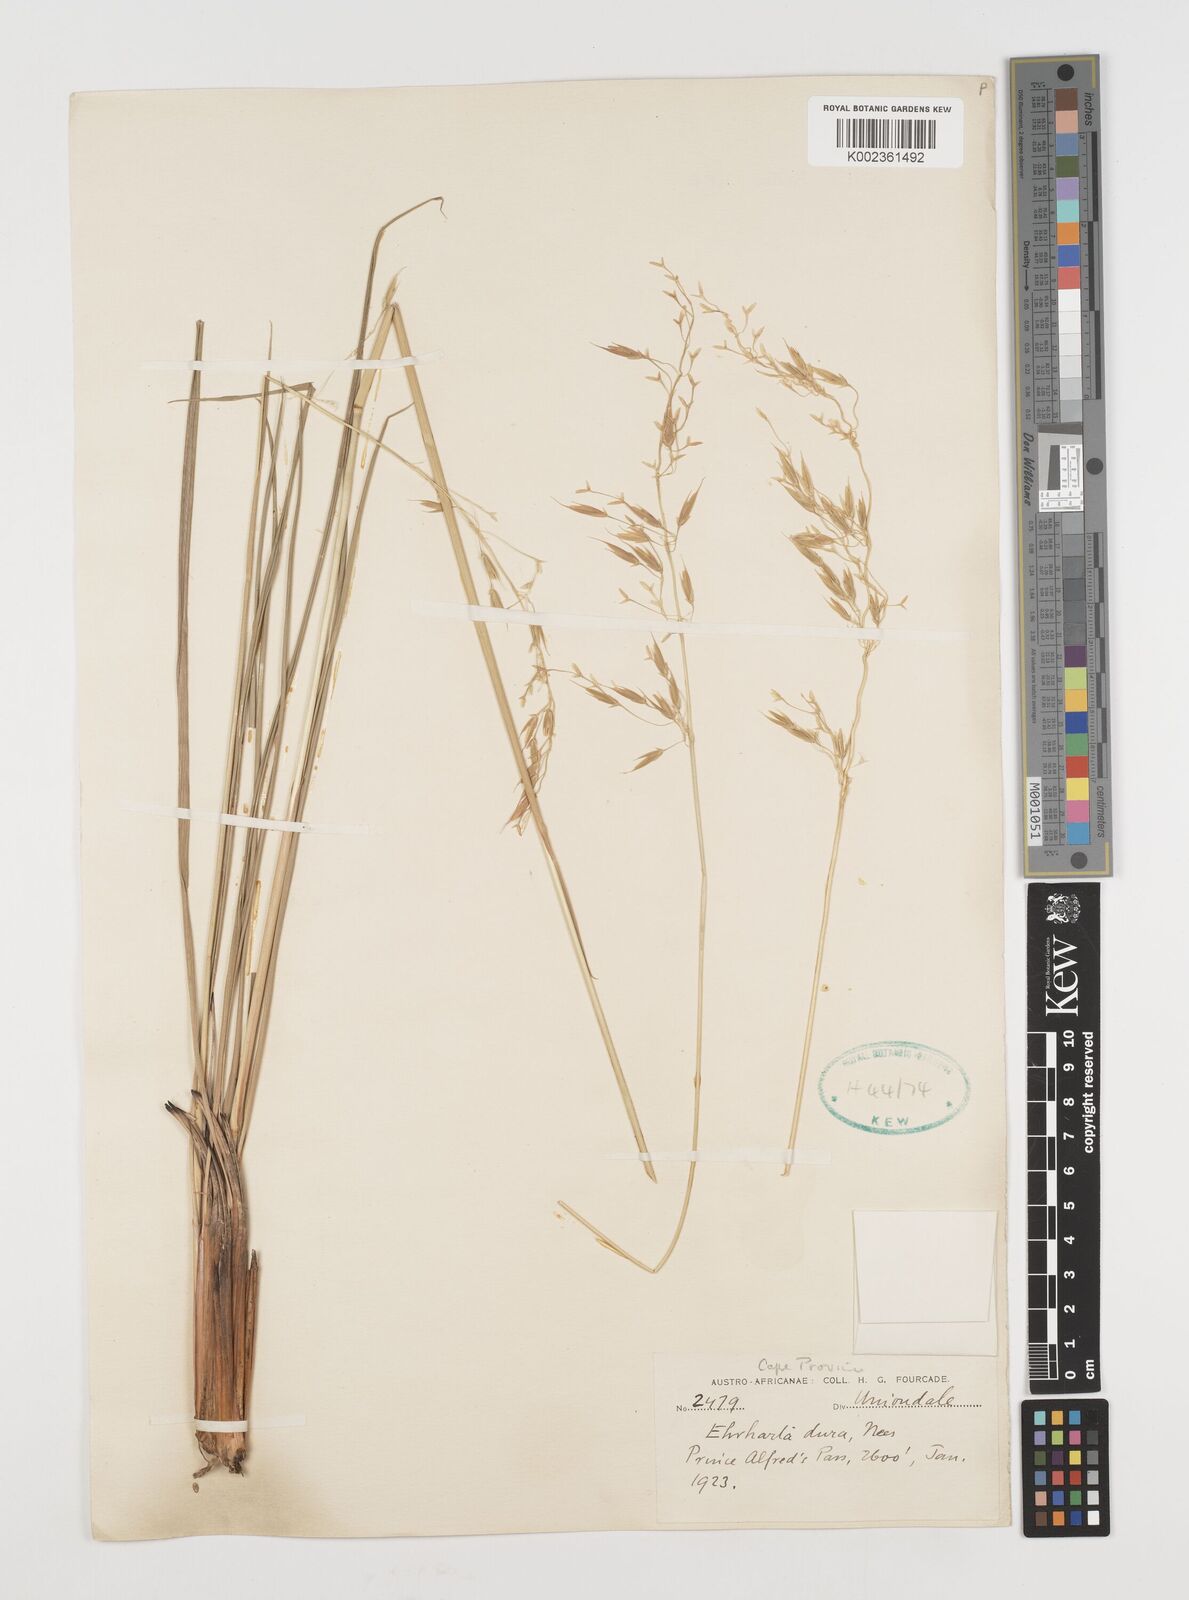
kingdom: Plantae
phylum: Tracheophyta
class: Liliopsida
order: Poales
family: Poaceae
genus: Ehrharta
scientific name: Ehrharta dura
